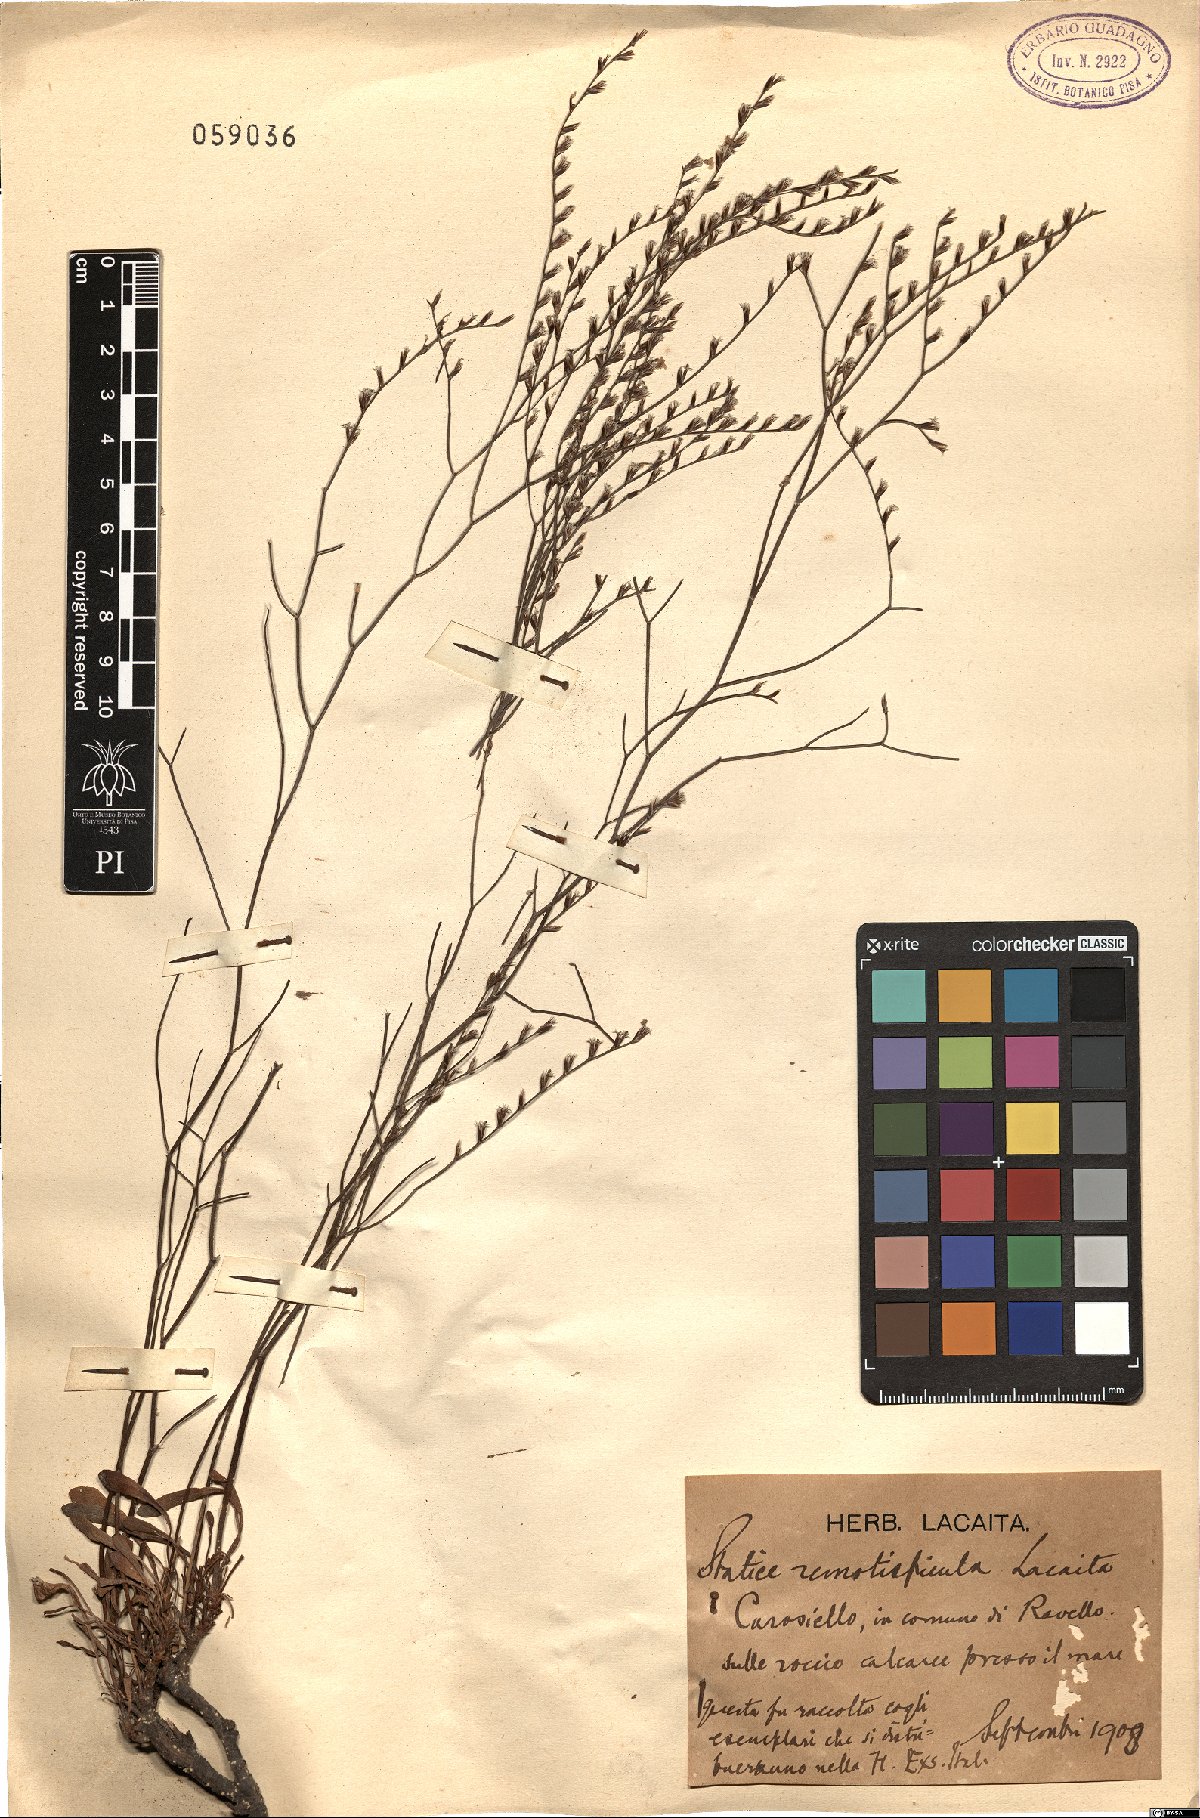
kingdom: Plantae
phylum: Tracheophyta
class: Magnoliopsida
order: Caryophyllales
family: Plumbaginaceae
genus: Limonium
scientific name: Limonium remotispiculum
